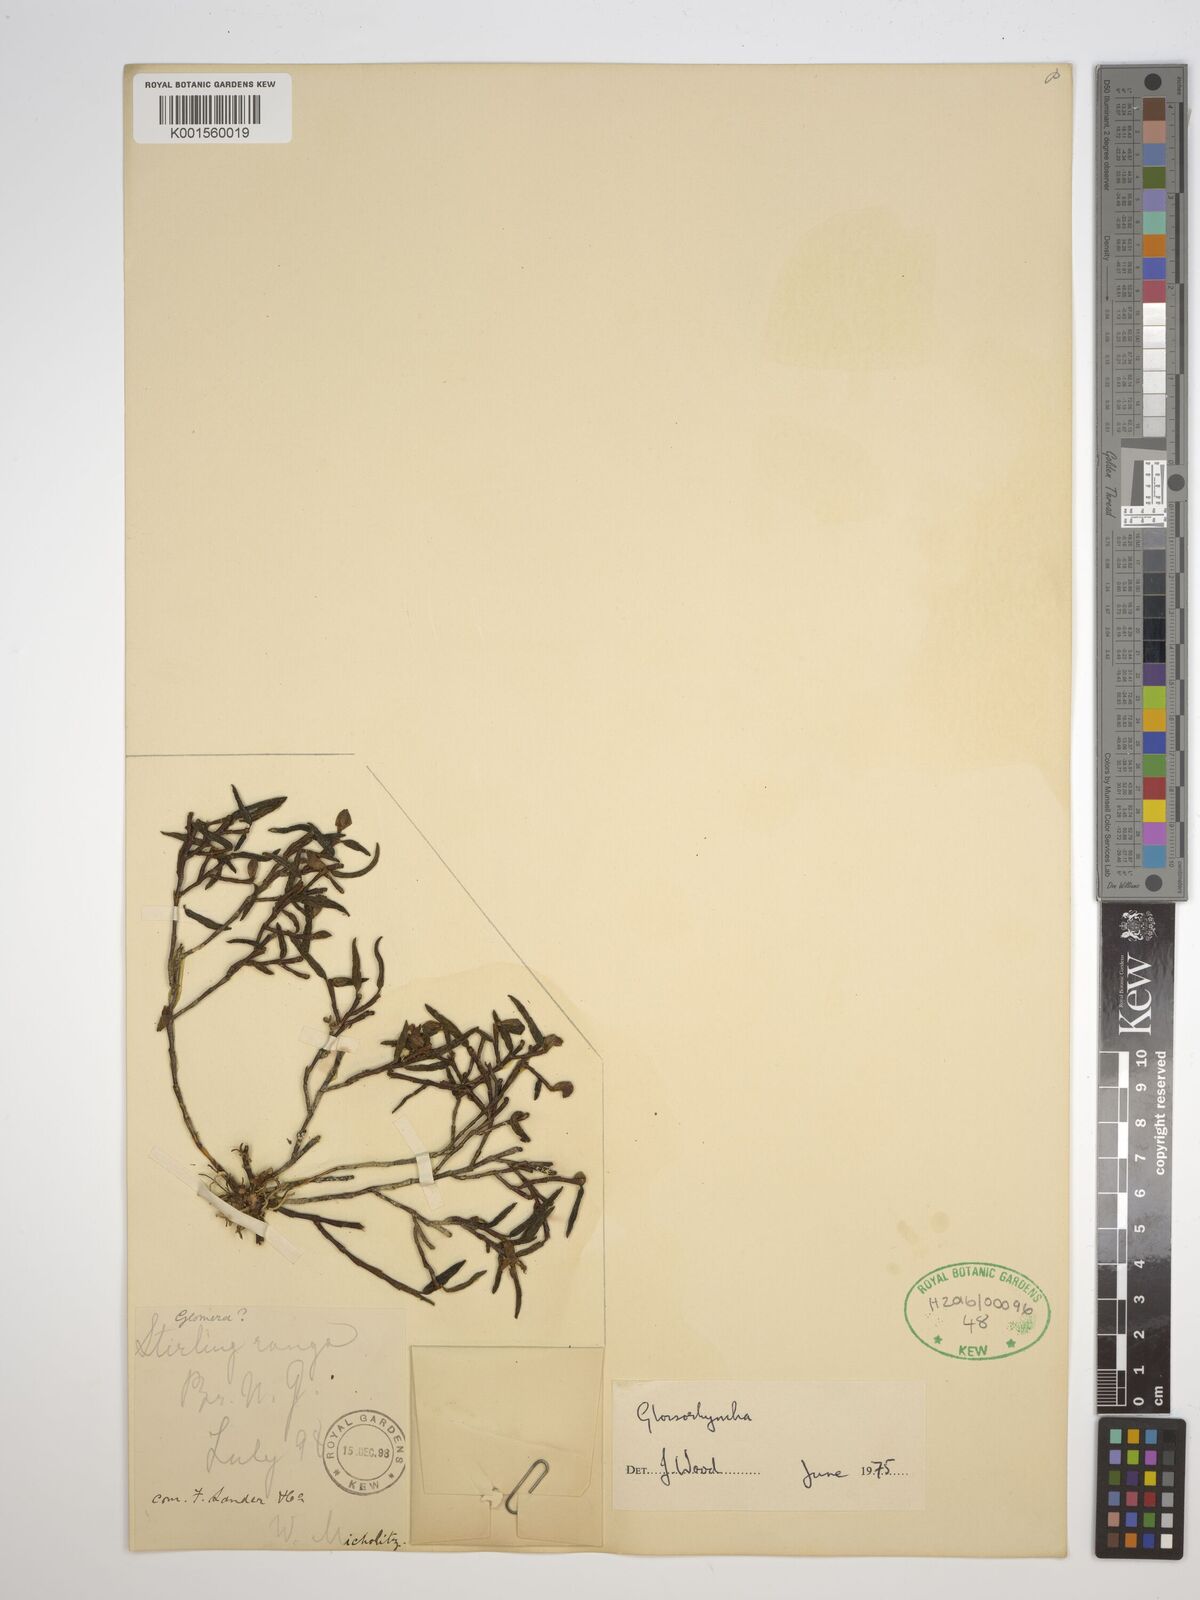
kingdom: Plantae
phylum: Tracheophyta
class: Liliopsida
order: Asparagales
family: Orchidaceae
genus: Glomera
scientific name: Glomera
